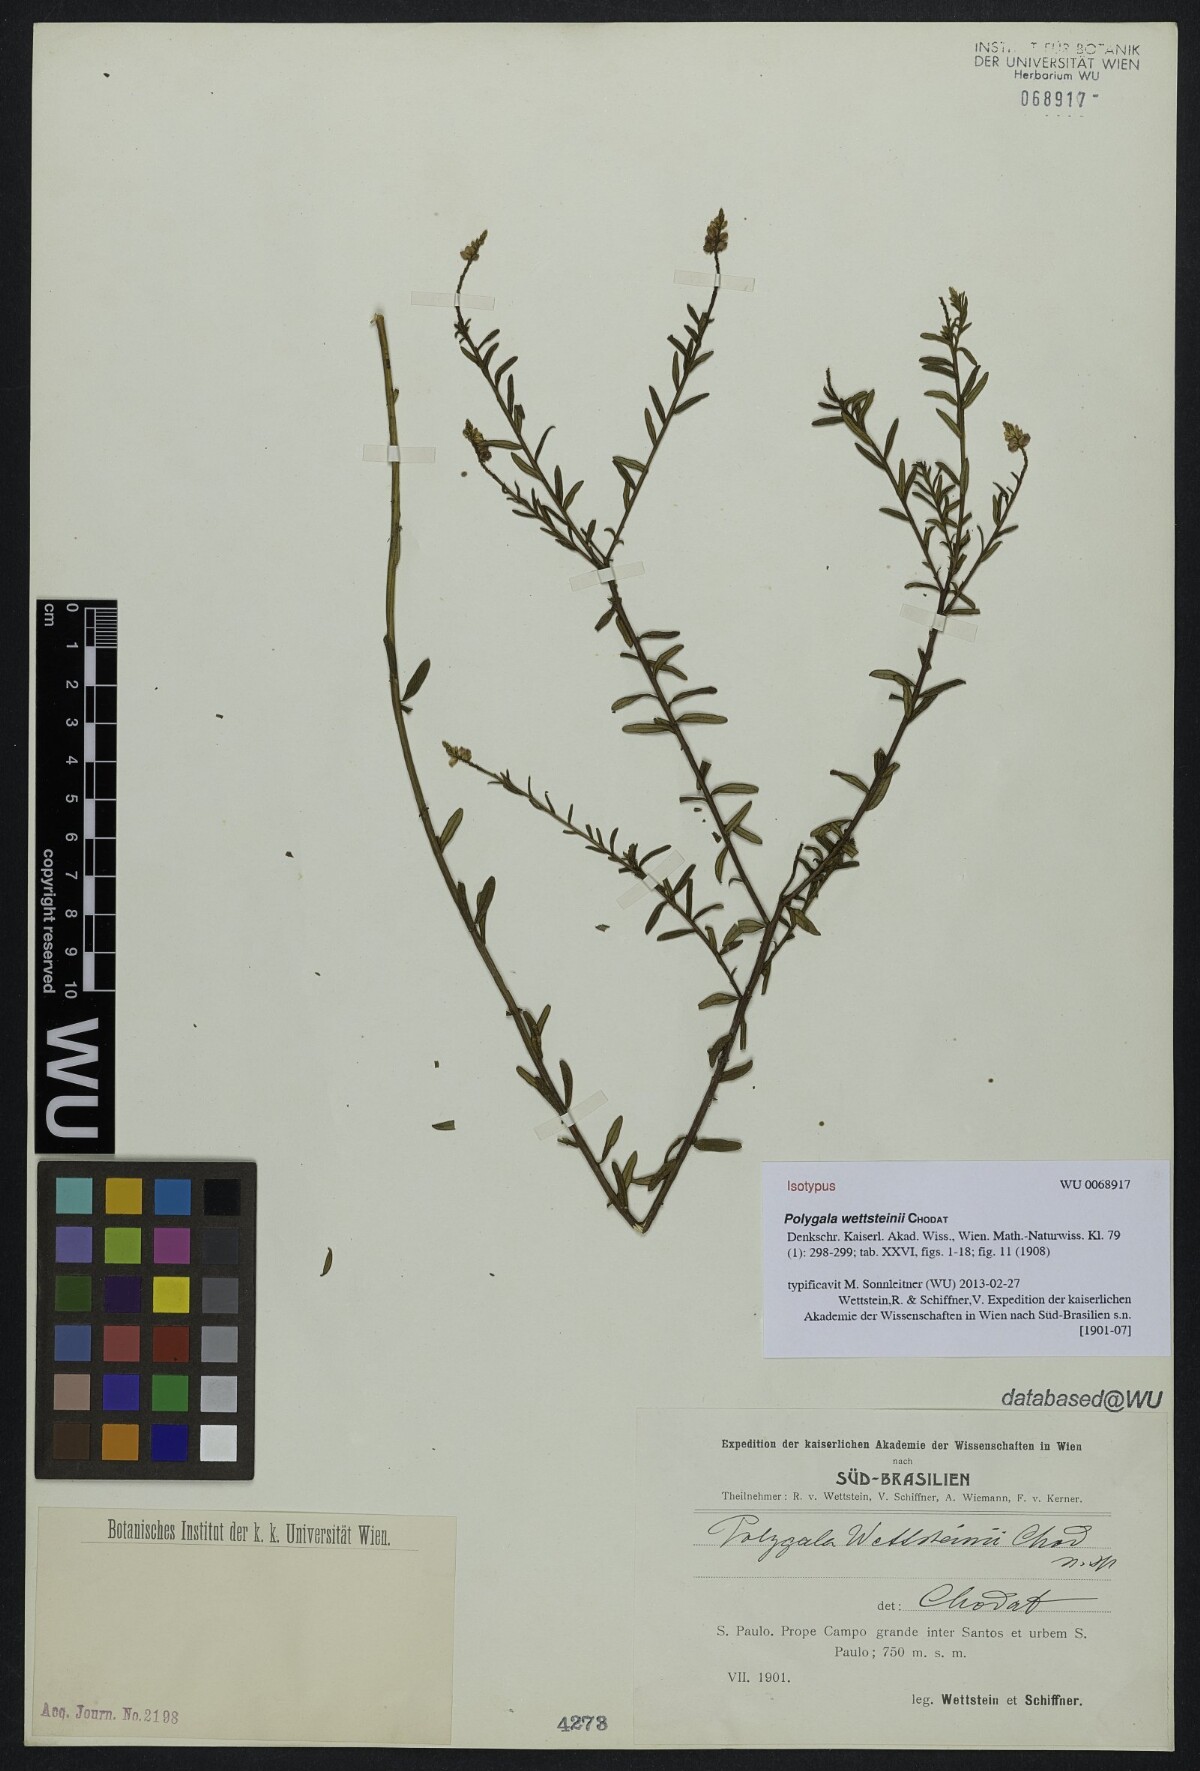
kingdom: Plantae
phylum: Tracheophyta
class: Magnoliopsida
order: Fabales
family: Polygalaceae
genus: Polygala
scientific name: Polygala wettsteinii
